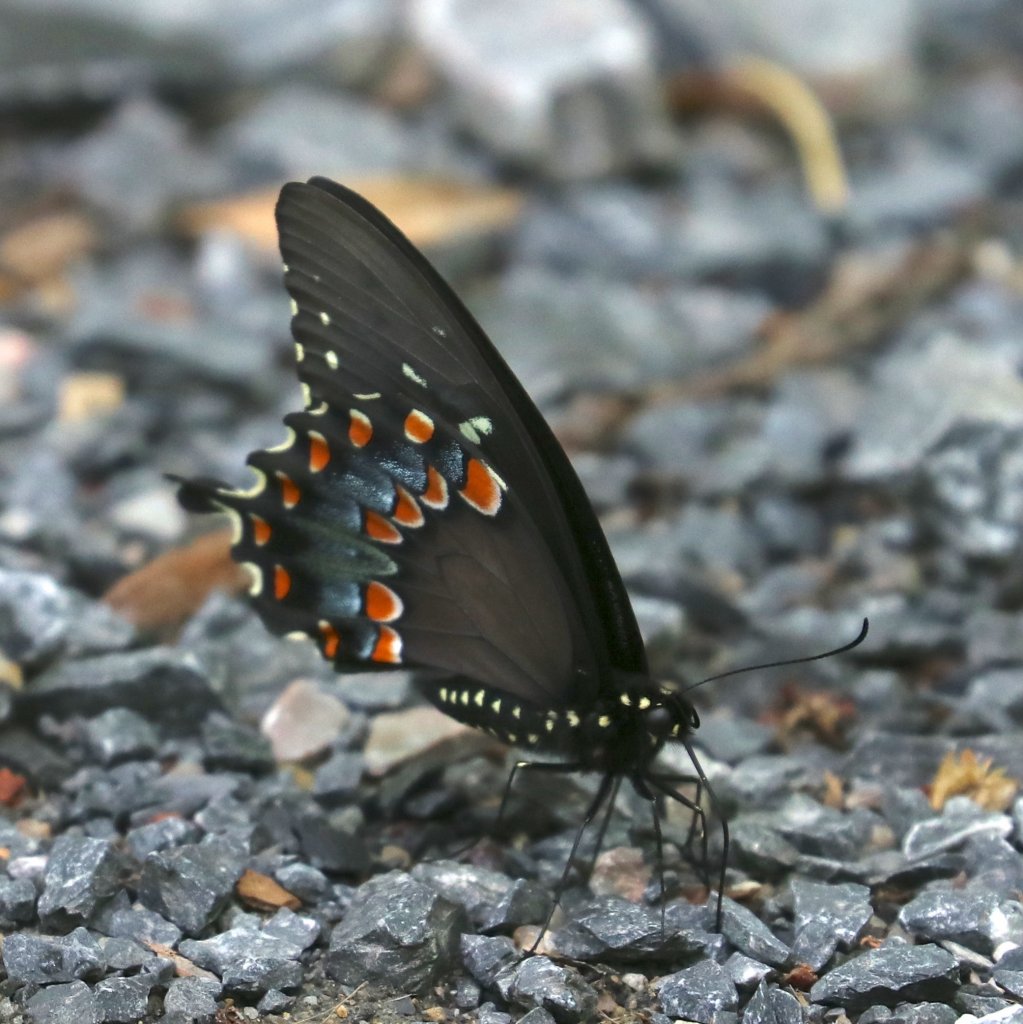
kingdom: Animalia
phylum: Arthropoda
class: Insecta
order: Lepidoptera
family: Papilionidae
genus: Pterourus
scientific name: Pterourus troilus
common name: Spicebush Swallowtail
